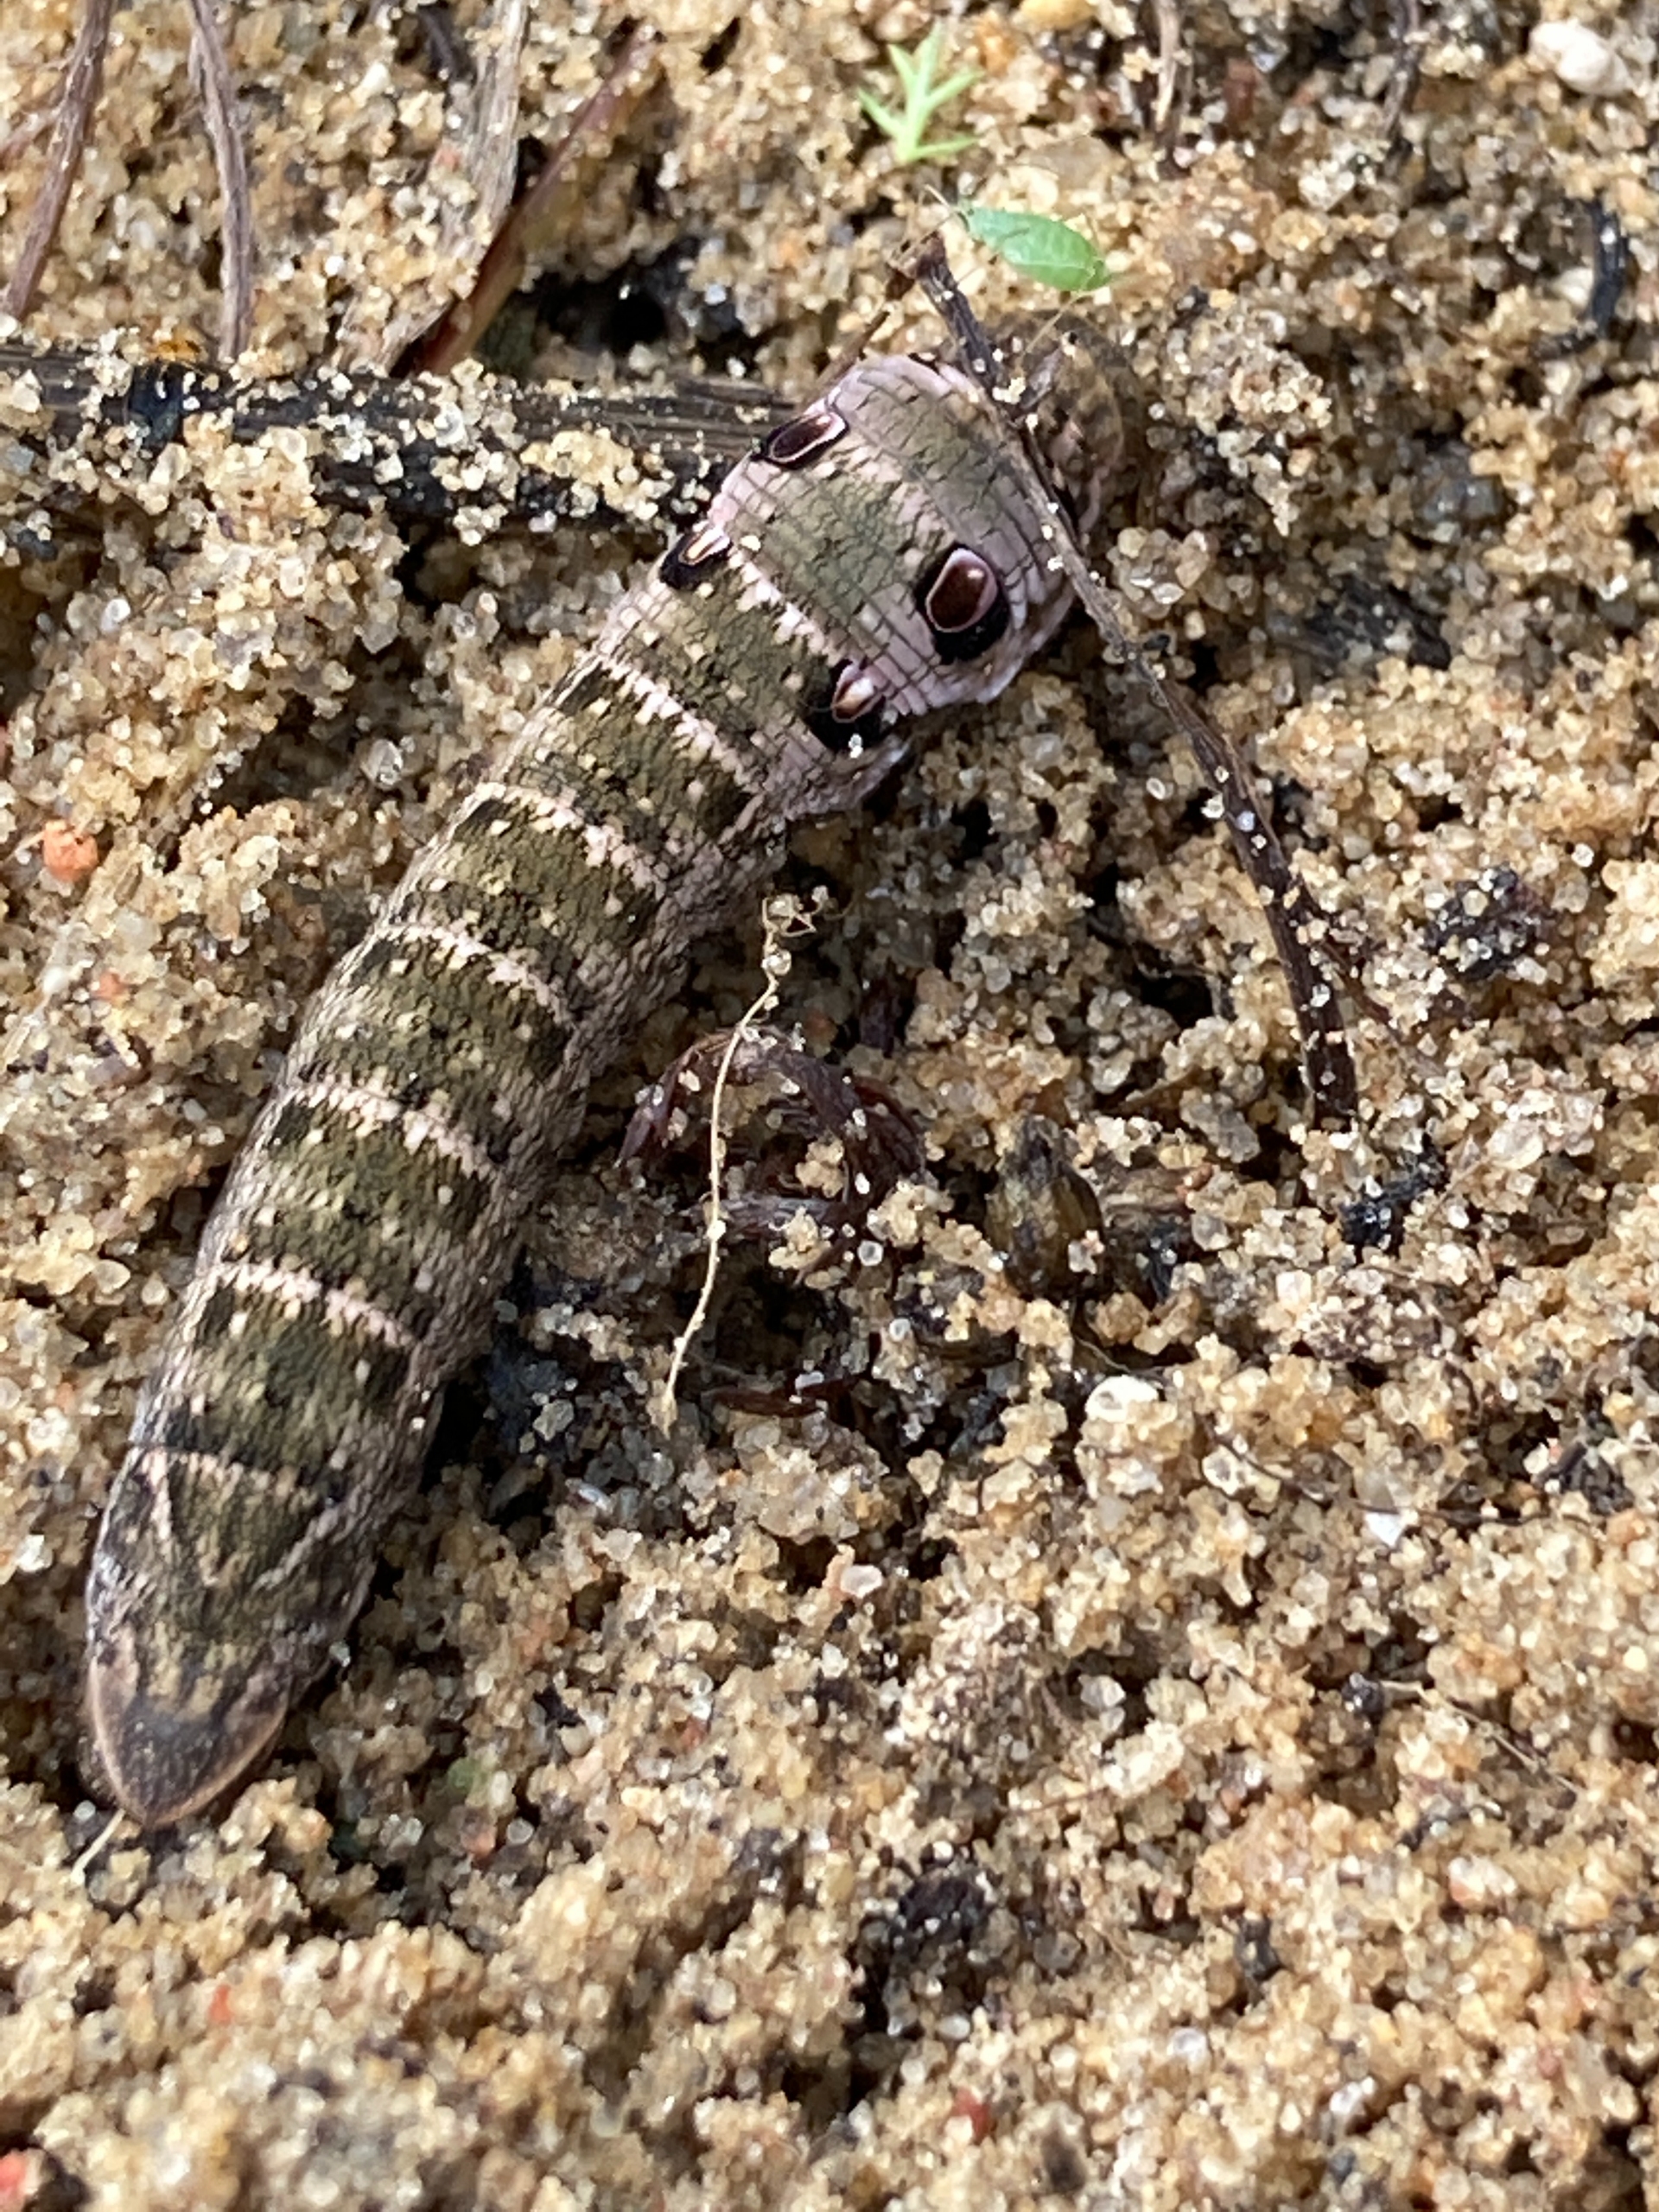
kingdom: Animalia
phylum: Arthropoda
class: Insecta
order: Lepidoptera
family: Sphingidae
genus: Deilephila
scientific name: Deilephila porcellus
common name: Lille vinsværmer
